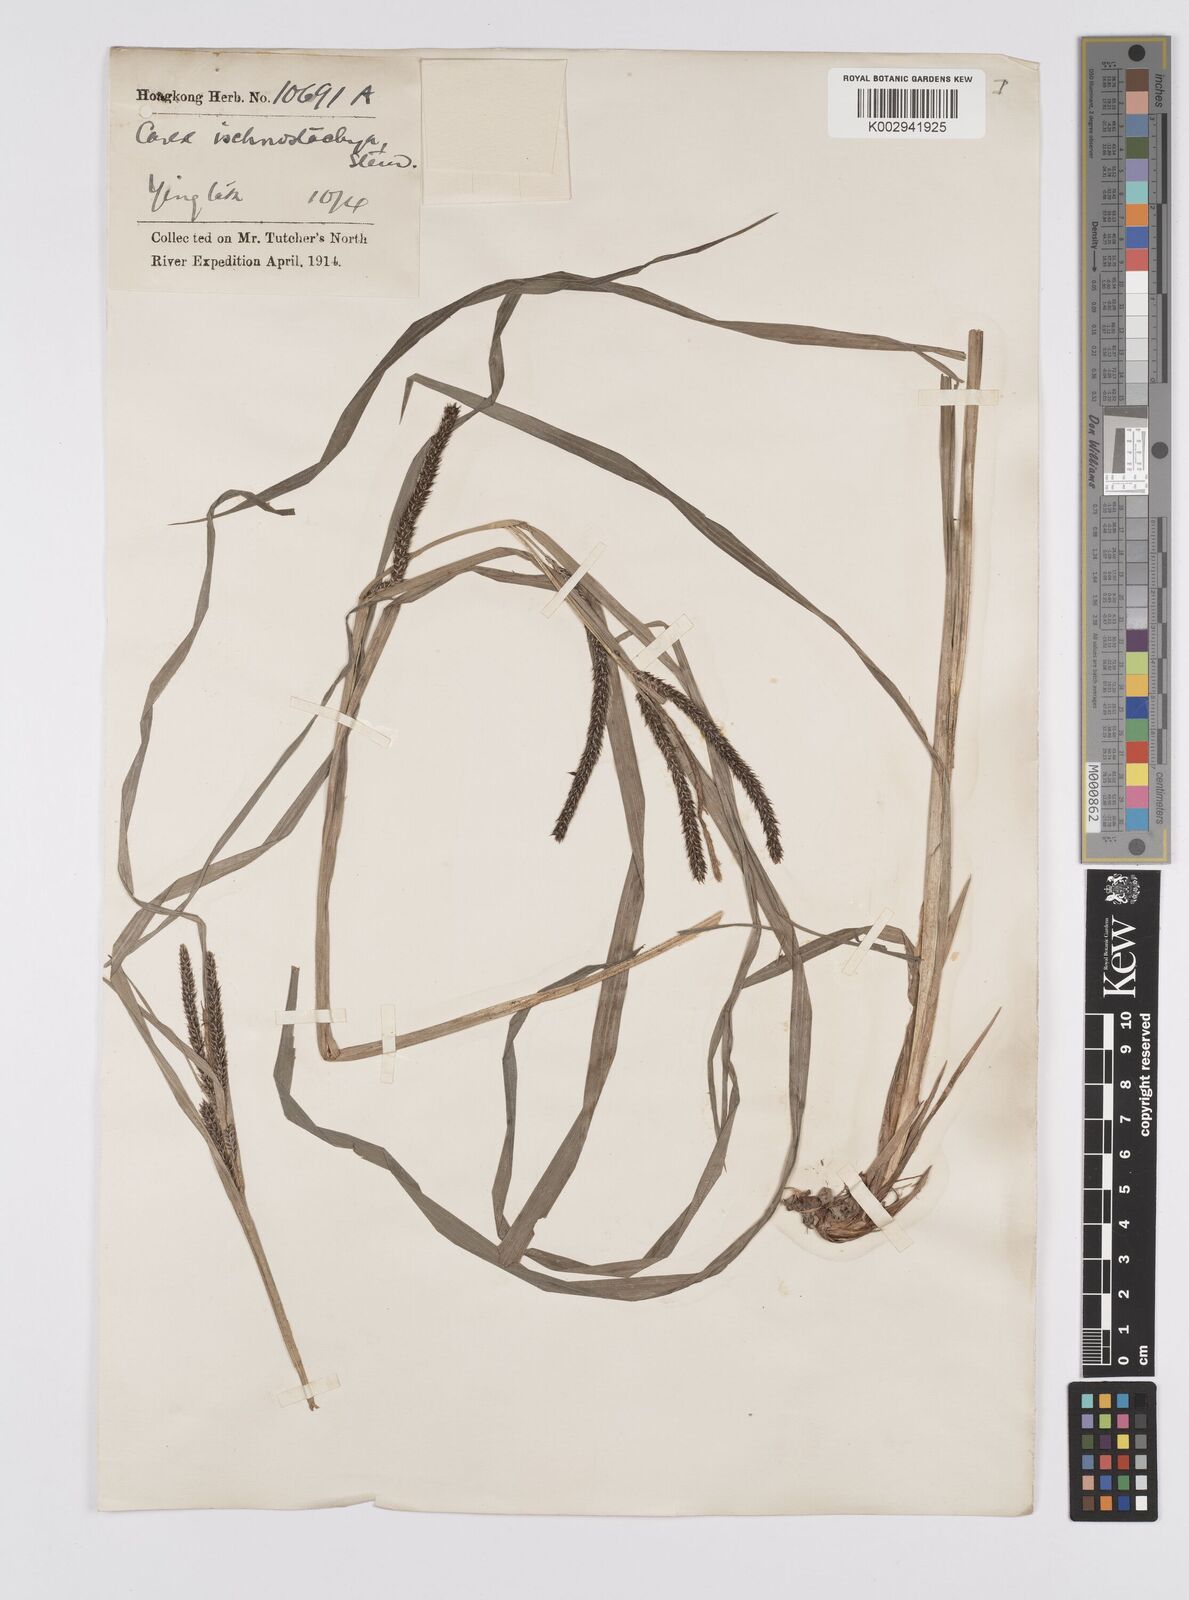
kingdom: Plantae
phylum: Tracheophyta
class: Liliopsida
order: Poales
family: Cyperaceae
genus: Carex
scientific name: Carex ischnostachya
